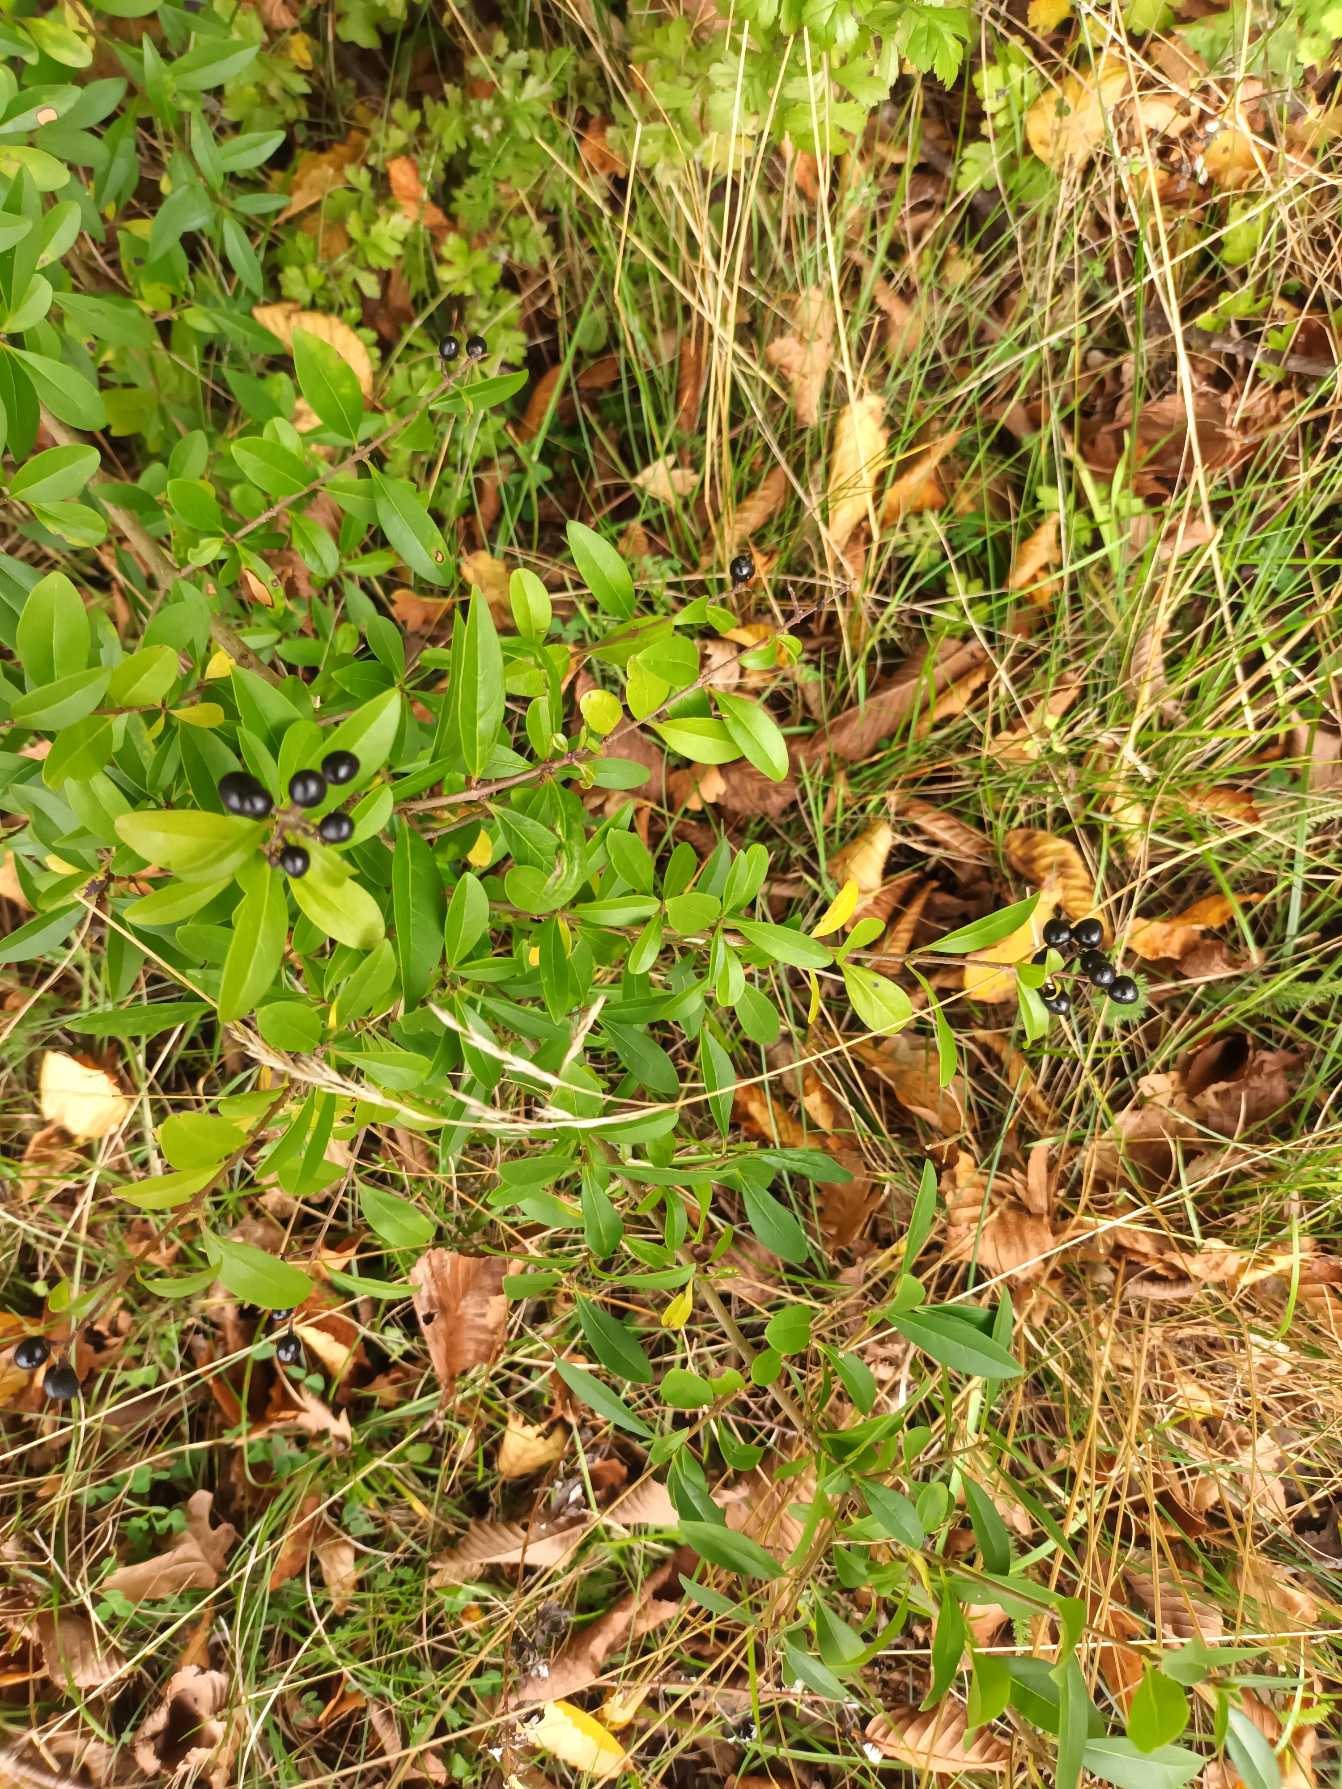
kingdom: Plantae
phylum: Tracheophyta
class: Magnoliopsida
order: Lamiales
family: Oleaceae
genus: Ligustrum
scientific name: Ligustrum vulgare
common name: Liguster
